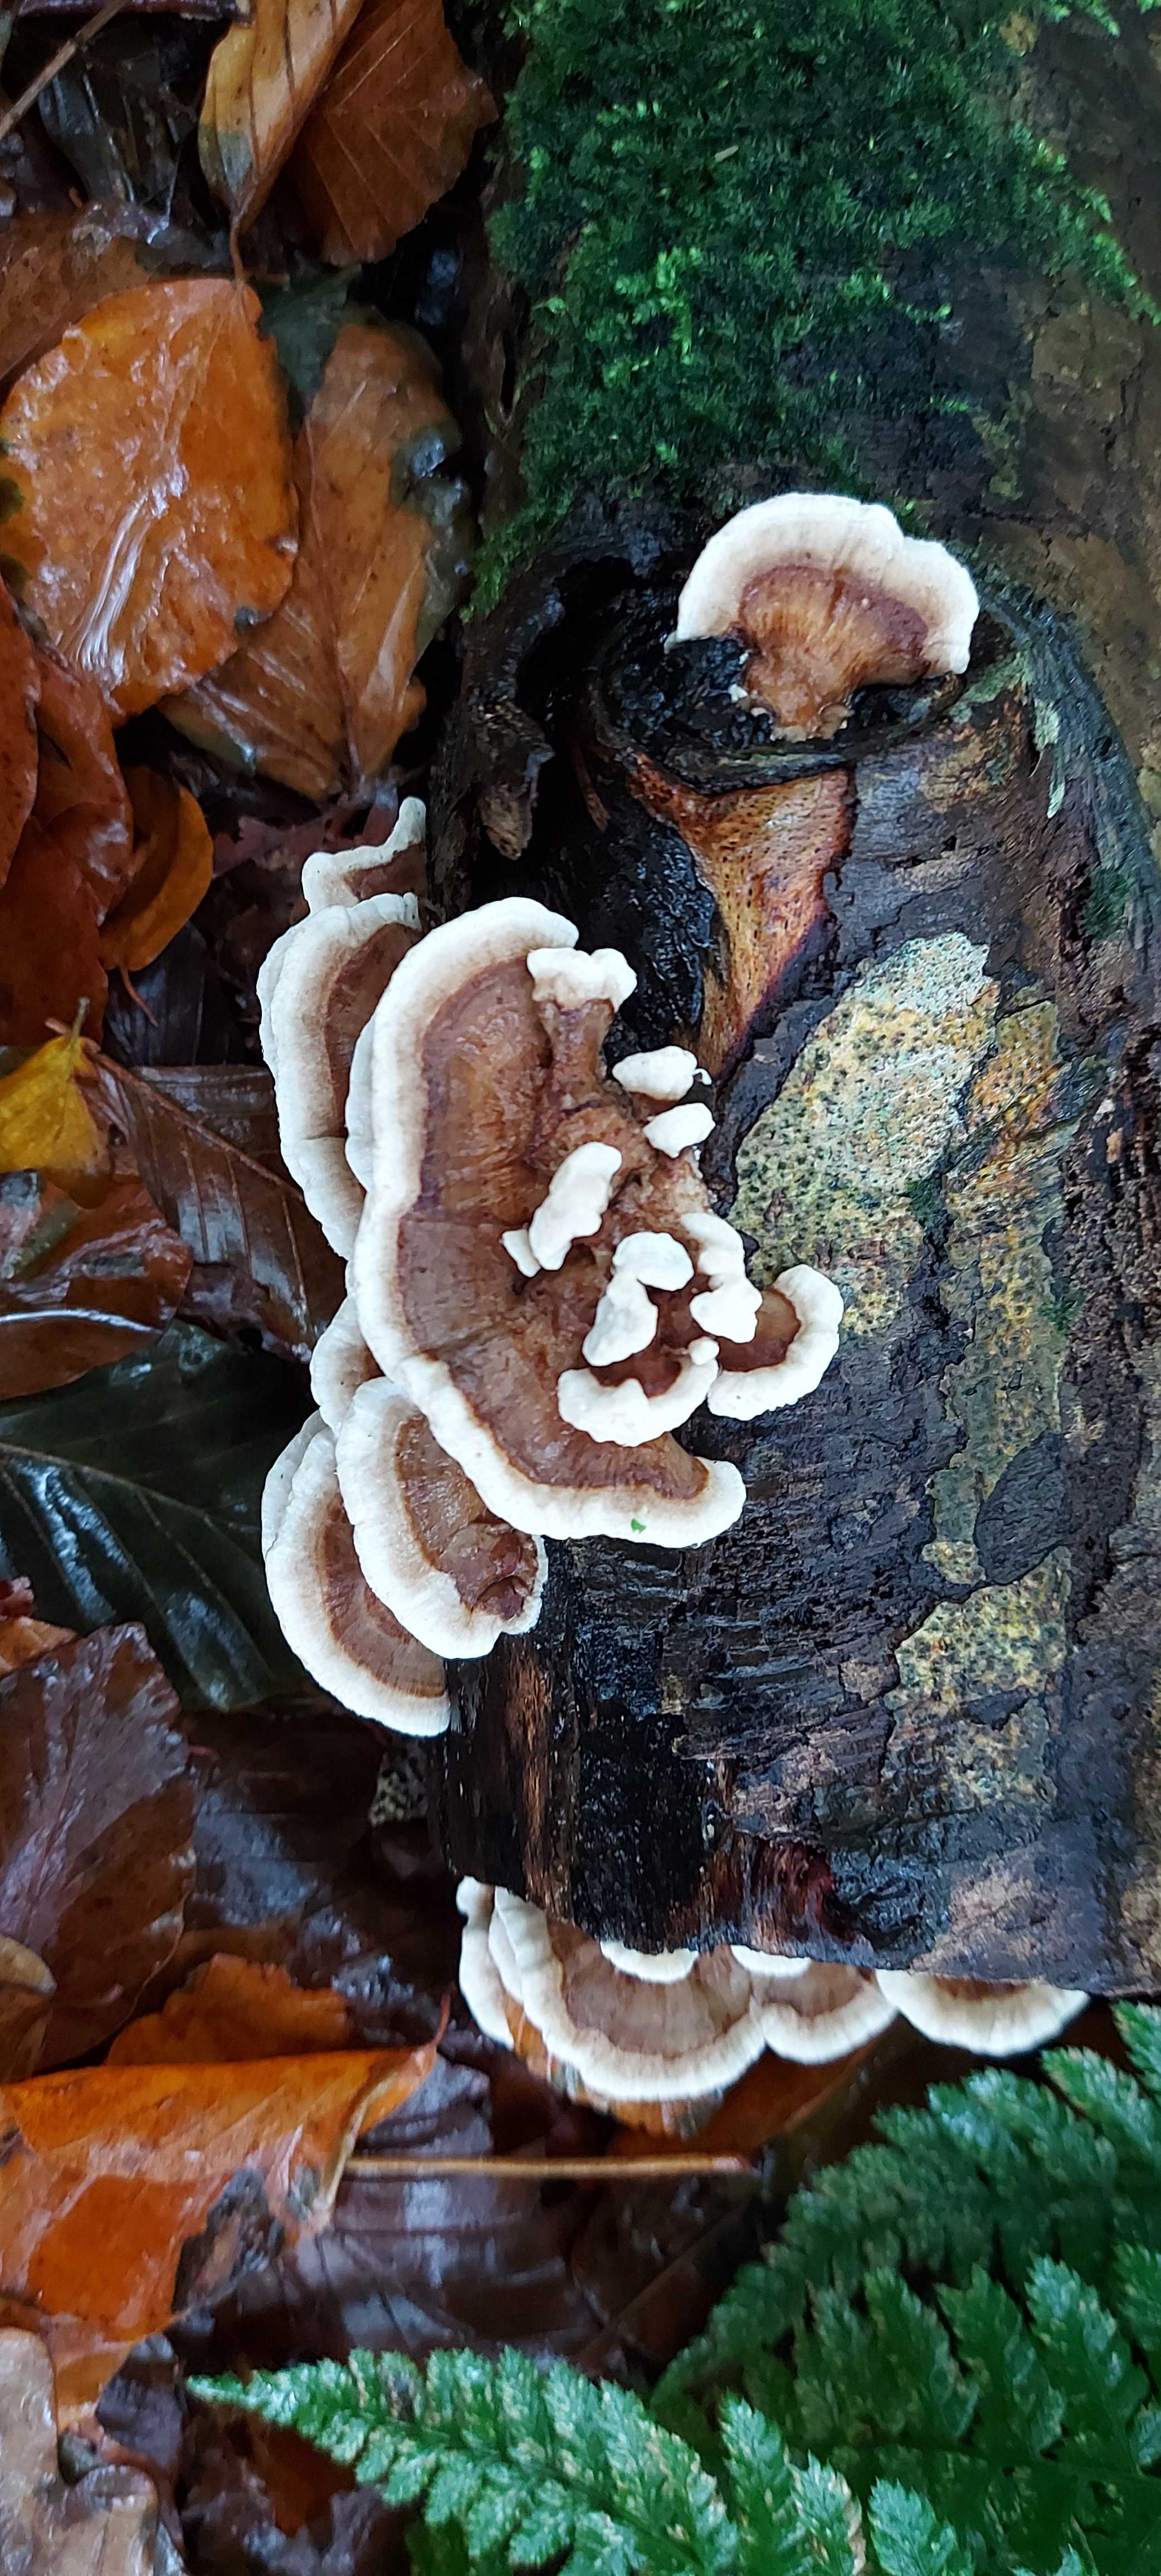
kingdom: Fungi
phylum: Basidiomycota
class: Agaricomycetes
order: Polyporales
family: Polyporaceae
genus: Trametes
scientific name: Trametes versicolor
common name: broget læderporesvamp
